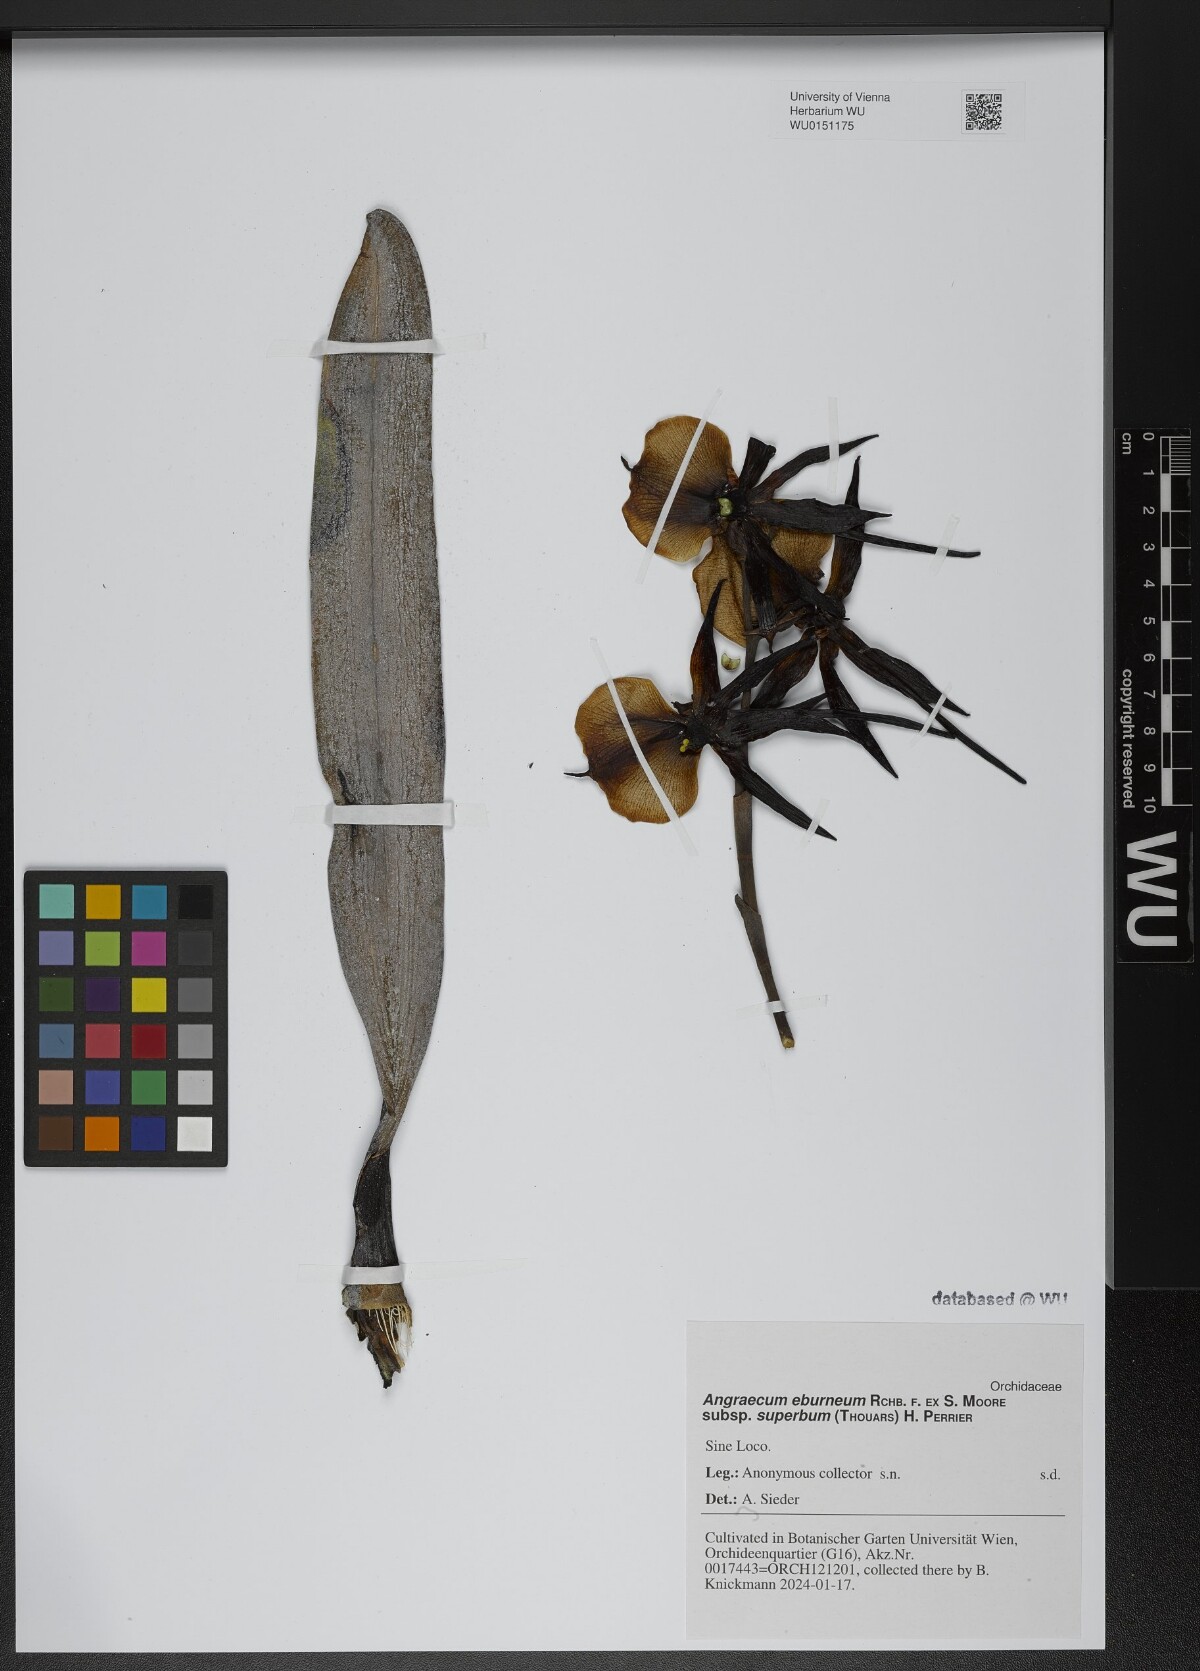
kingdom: Plantae
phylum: Tracheophyta
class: Liliopsida
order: Asparagales
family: Orchidaceae
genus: Angraecum
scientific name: Angraecum eburneum
